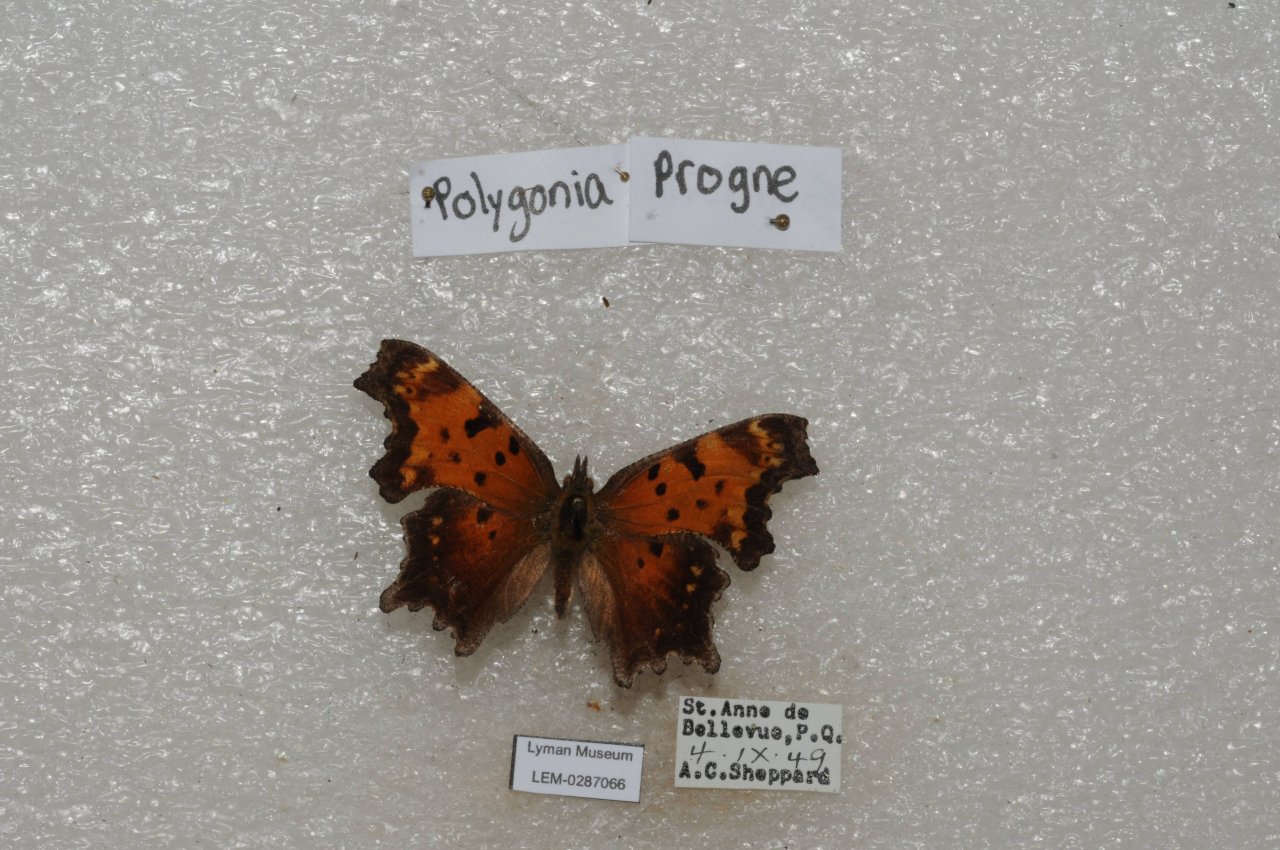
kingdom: Animalia
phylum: Arthropoda
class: Insecta
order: Lepidoptera
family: Nymphalidae
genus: Polygonia
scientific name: Polygonia progne
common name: Gray Comma
